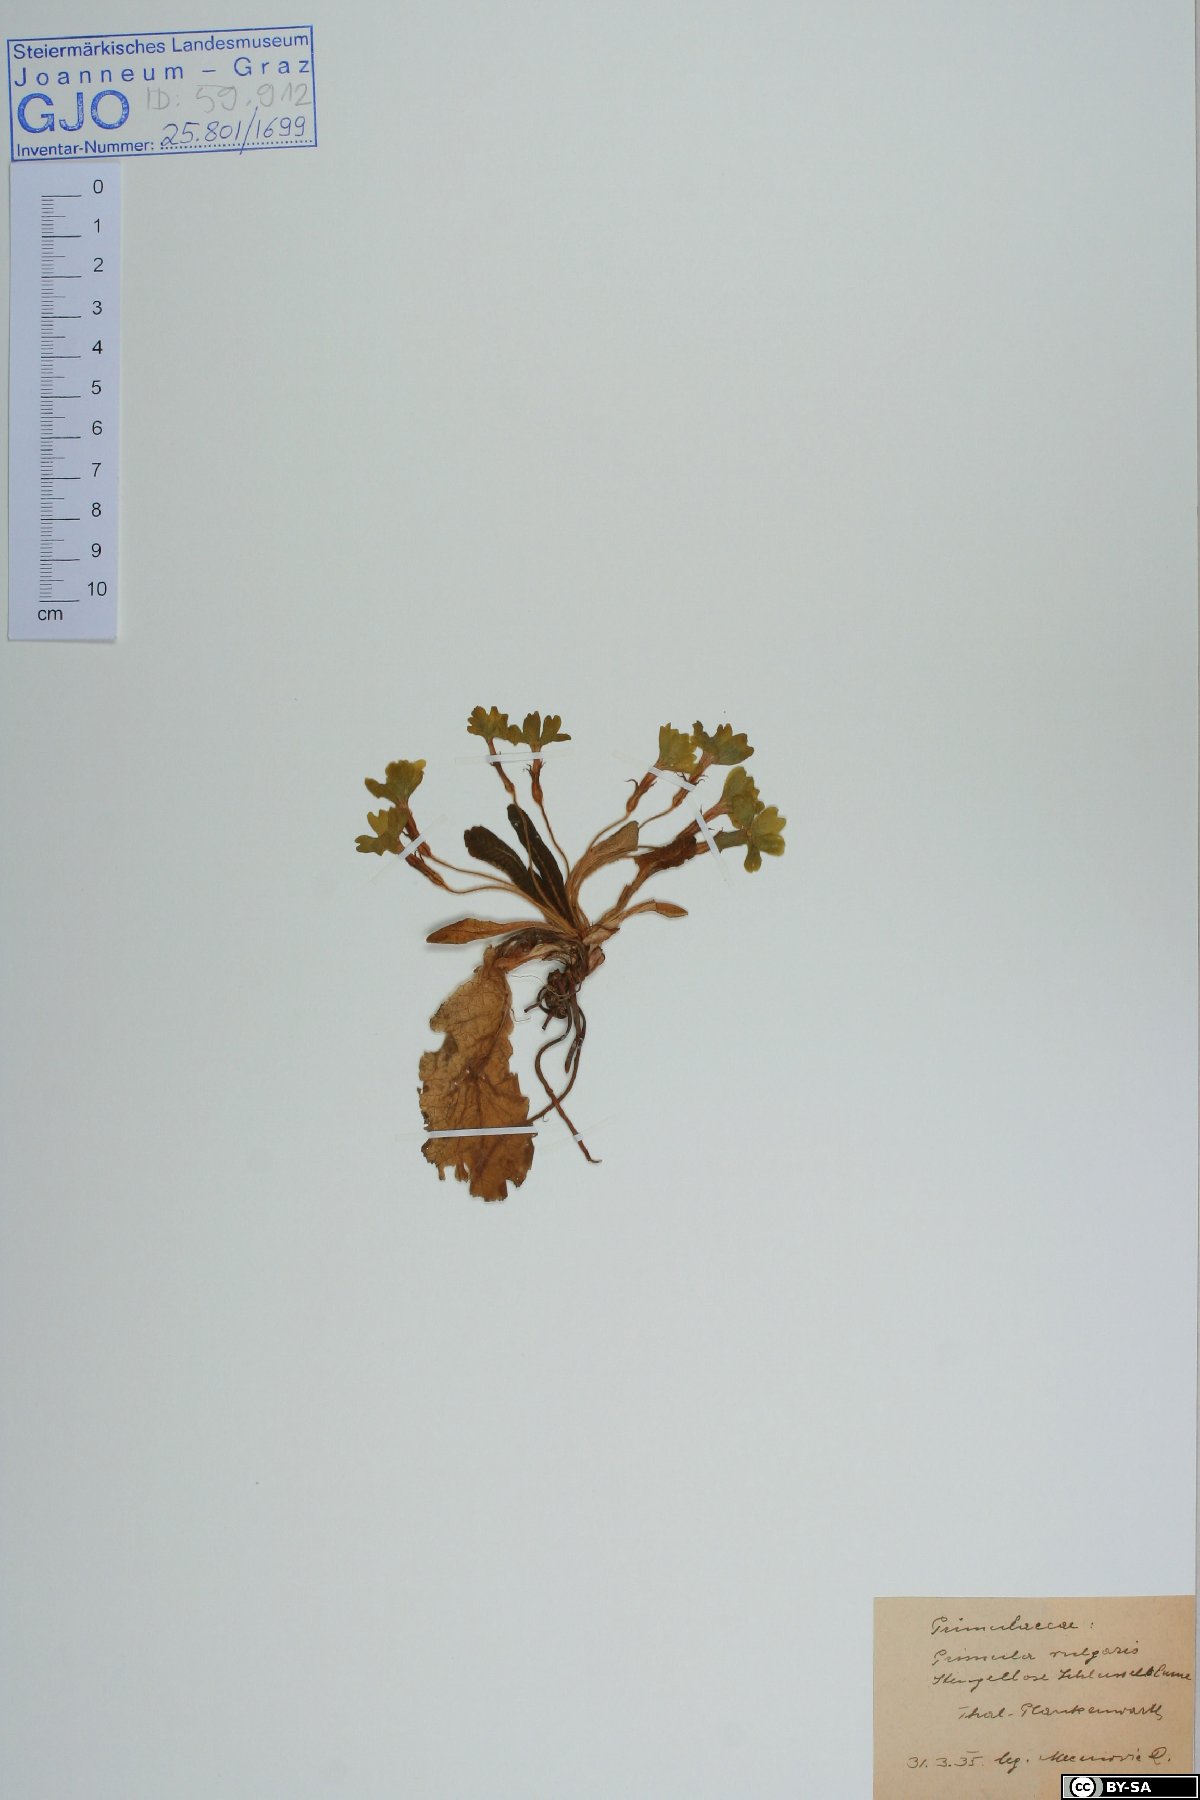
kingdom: Plantae
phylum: Tracheophyta
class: Magnoliopsida
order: Ericales
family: Primulaceae
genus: Primula
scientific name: Primula vulgaris
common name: Primrose
